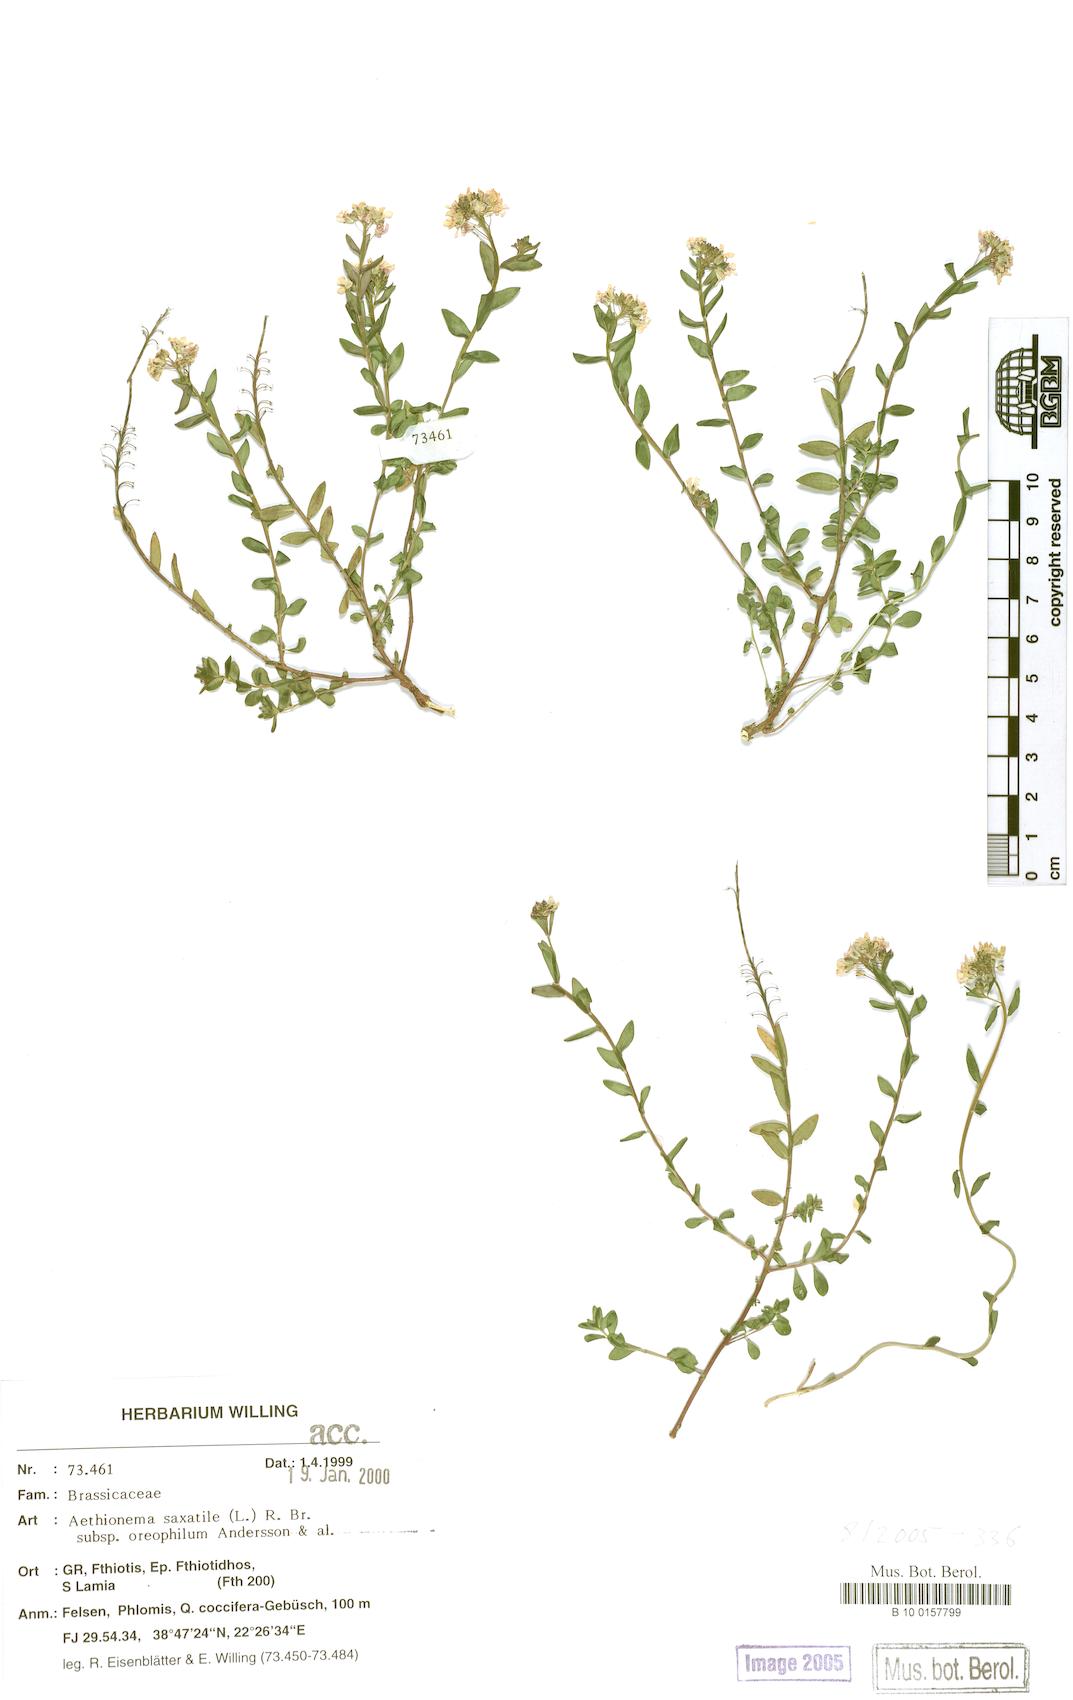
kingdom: Plantae
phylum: Tracheophyta
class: Magnoliopsida
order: Brassicales
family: Brassicaceae
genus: Aethionema
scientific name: Aethionema saxatile
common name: Burnt candytuft
